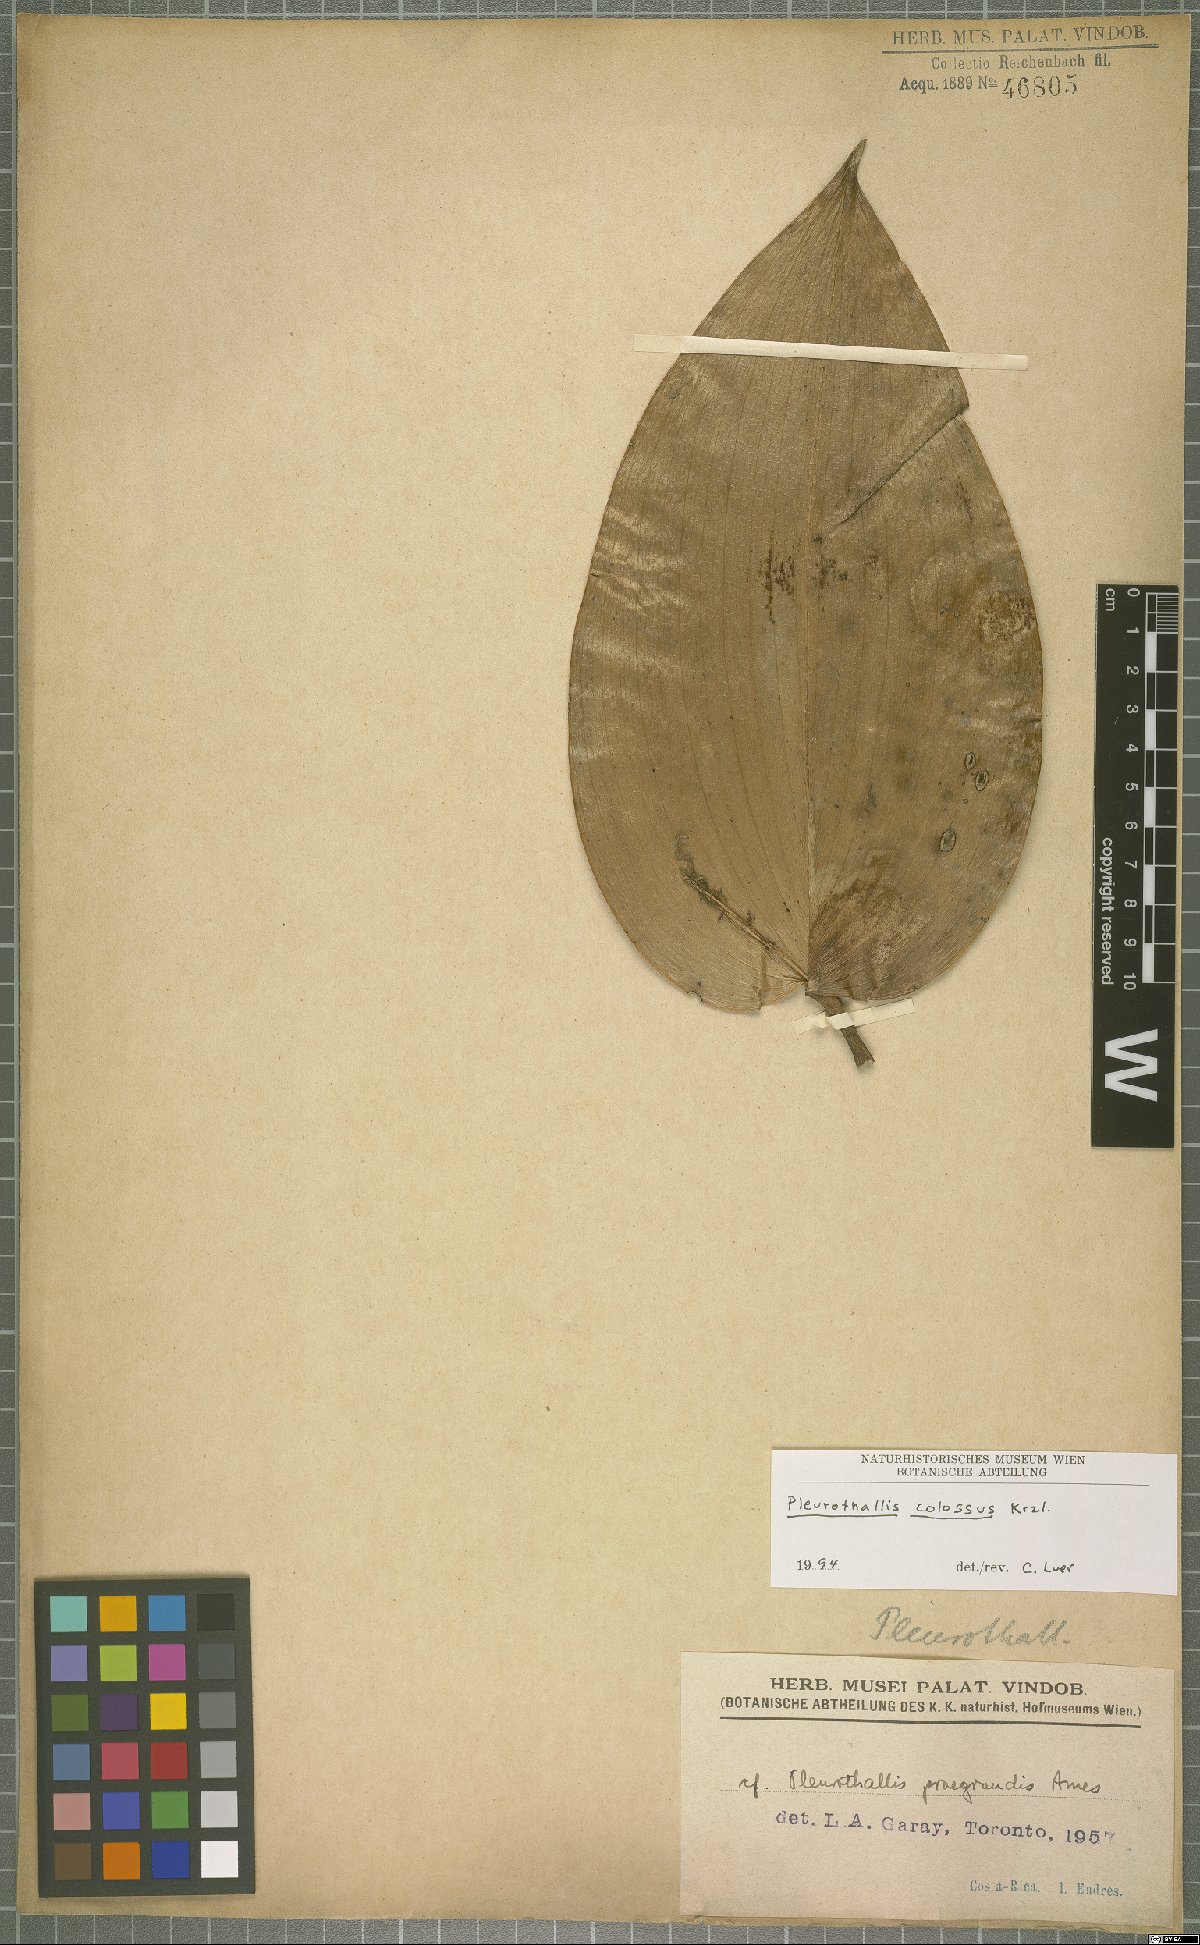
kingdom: Plantae
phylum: Tracheophyta
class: Liliopsida
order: Asparagales
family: Orchidaceae
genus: Pleurothallis
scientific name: Pleurothallis colossus
